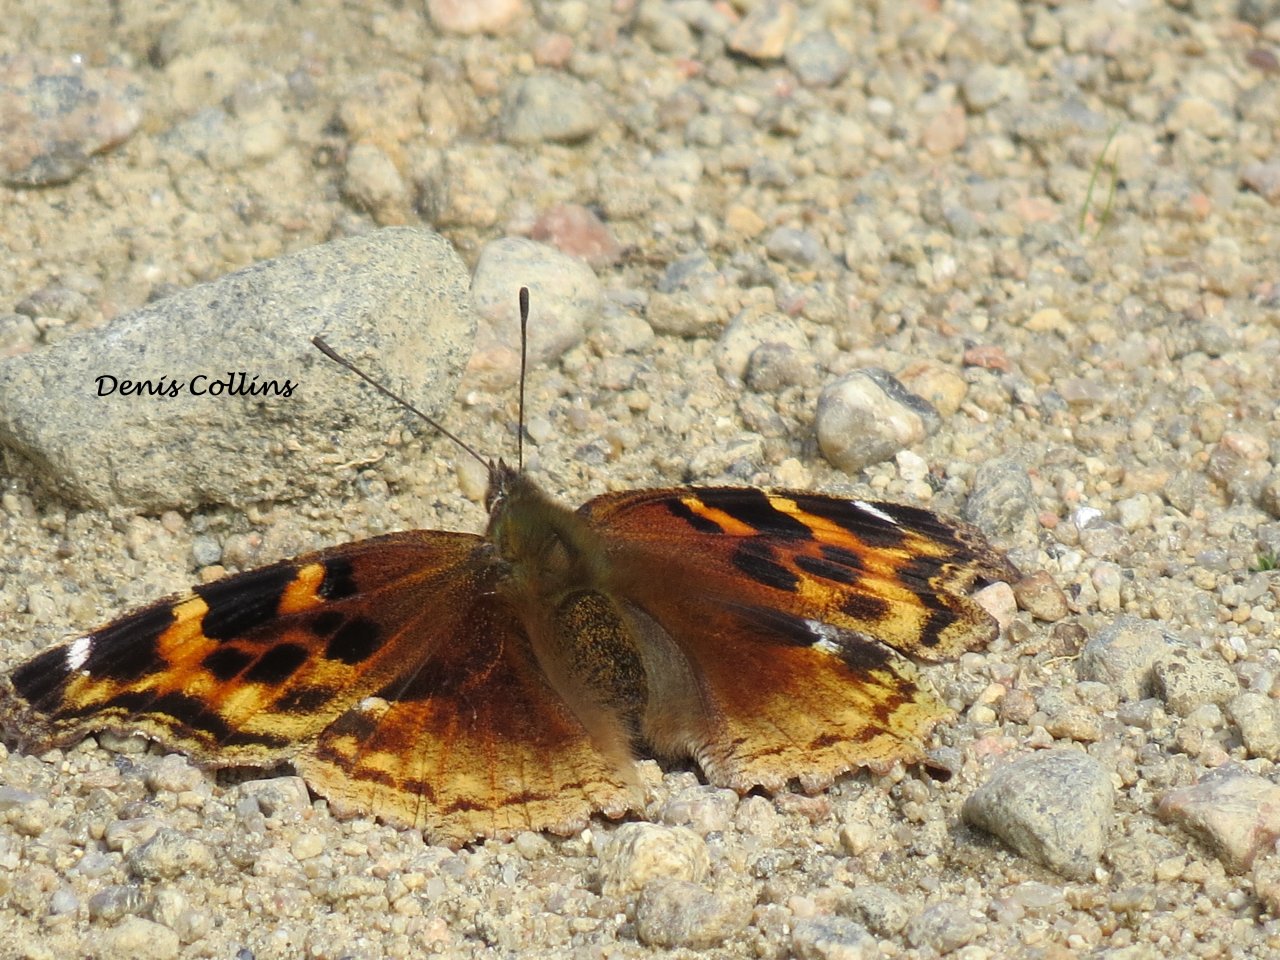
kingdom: Animalia
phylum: Arthropoda
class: Insecta
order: Lepidoptera
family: Nymphalidae
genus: Vanessa
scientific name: Vanessa virginiensis
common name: American Lady
